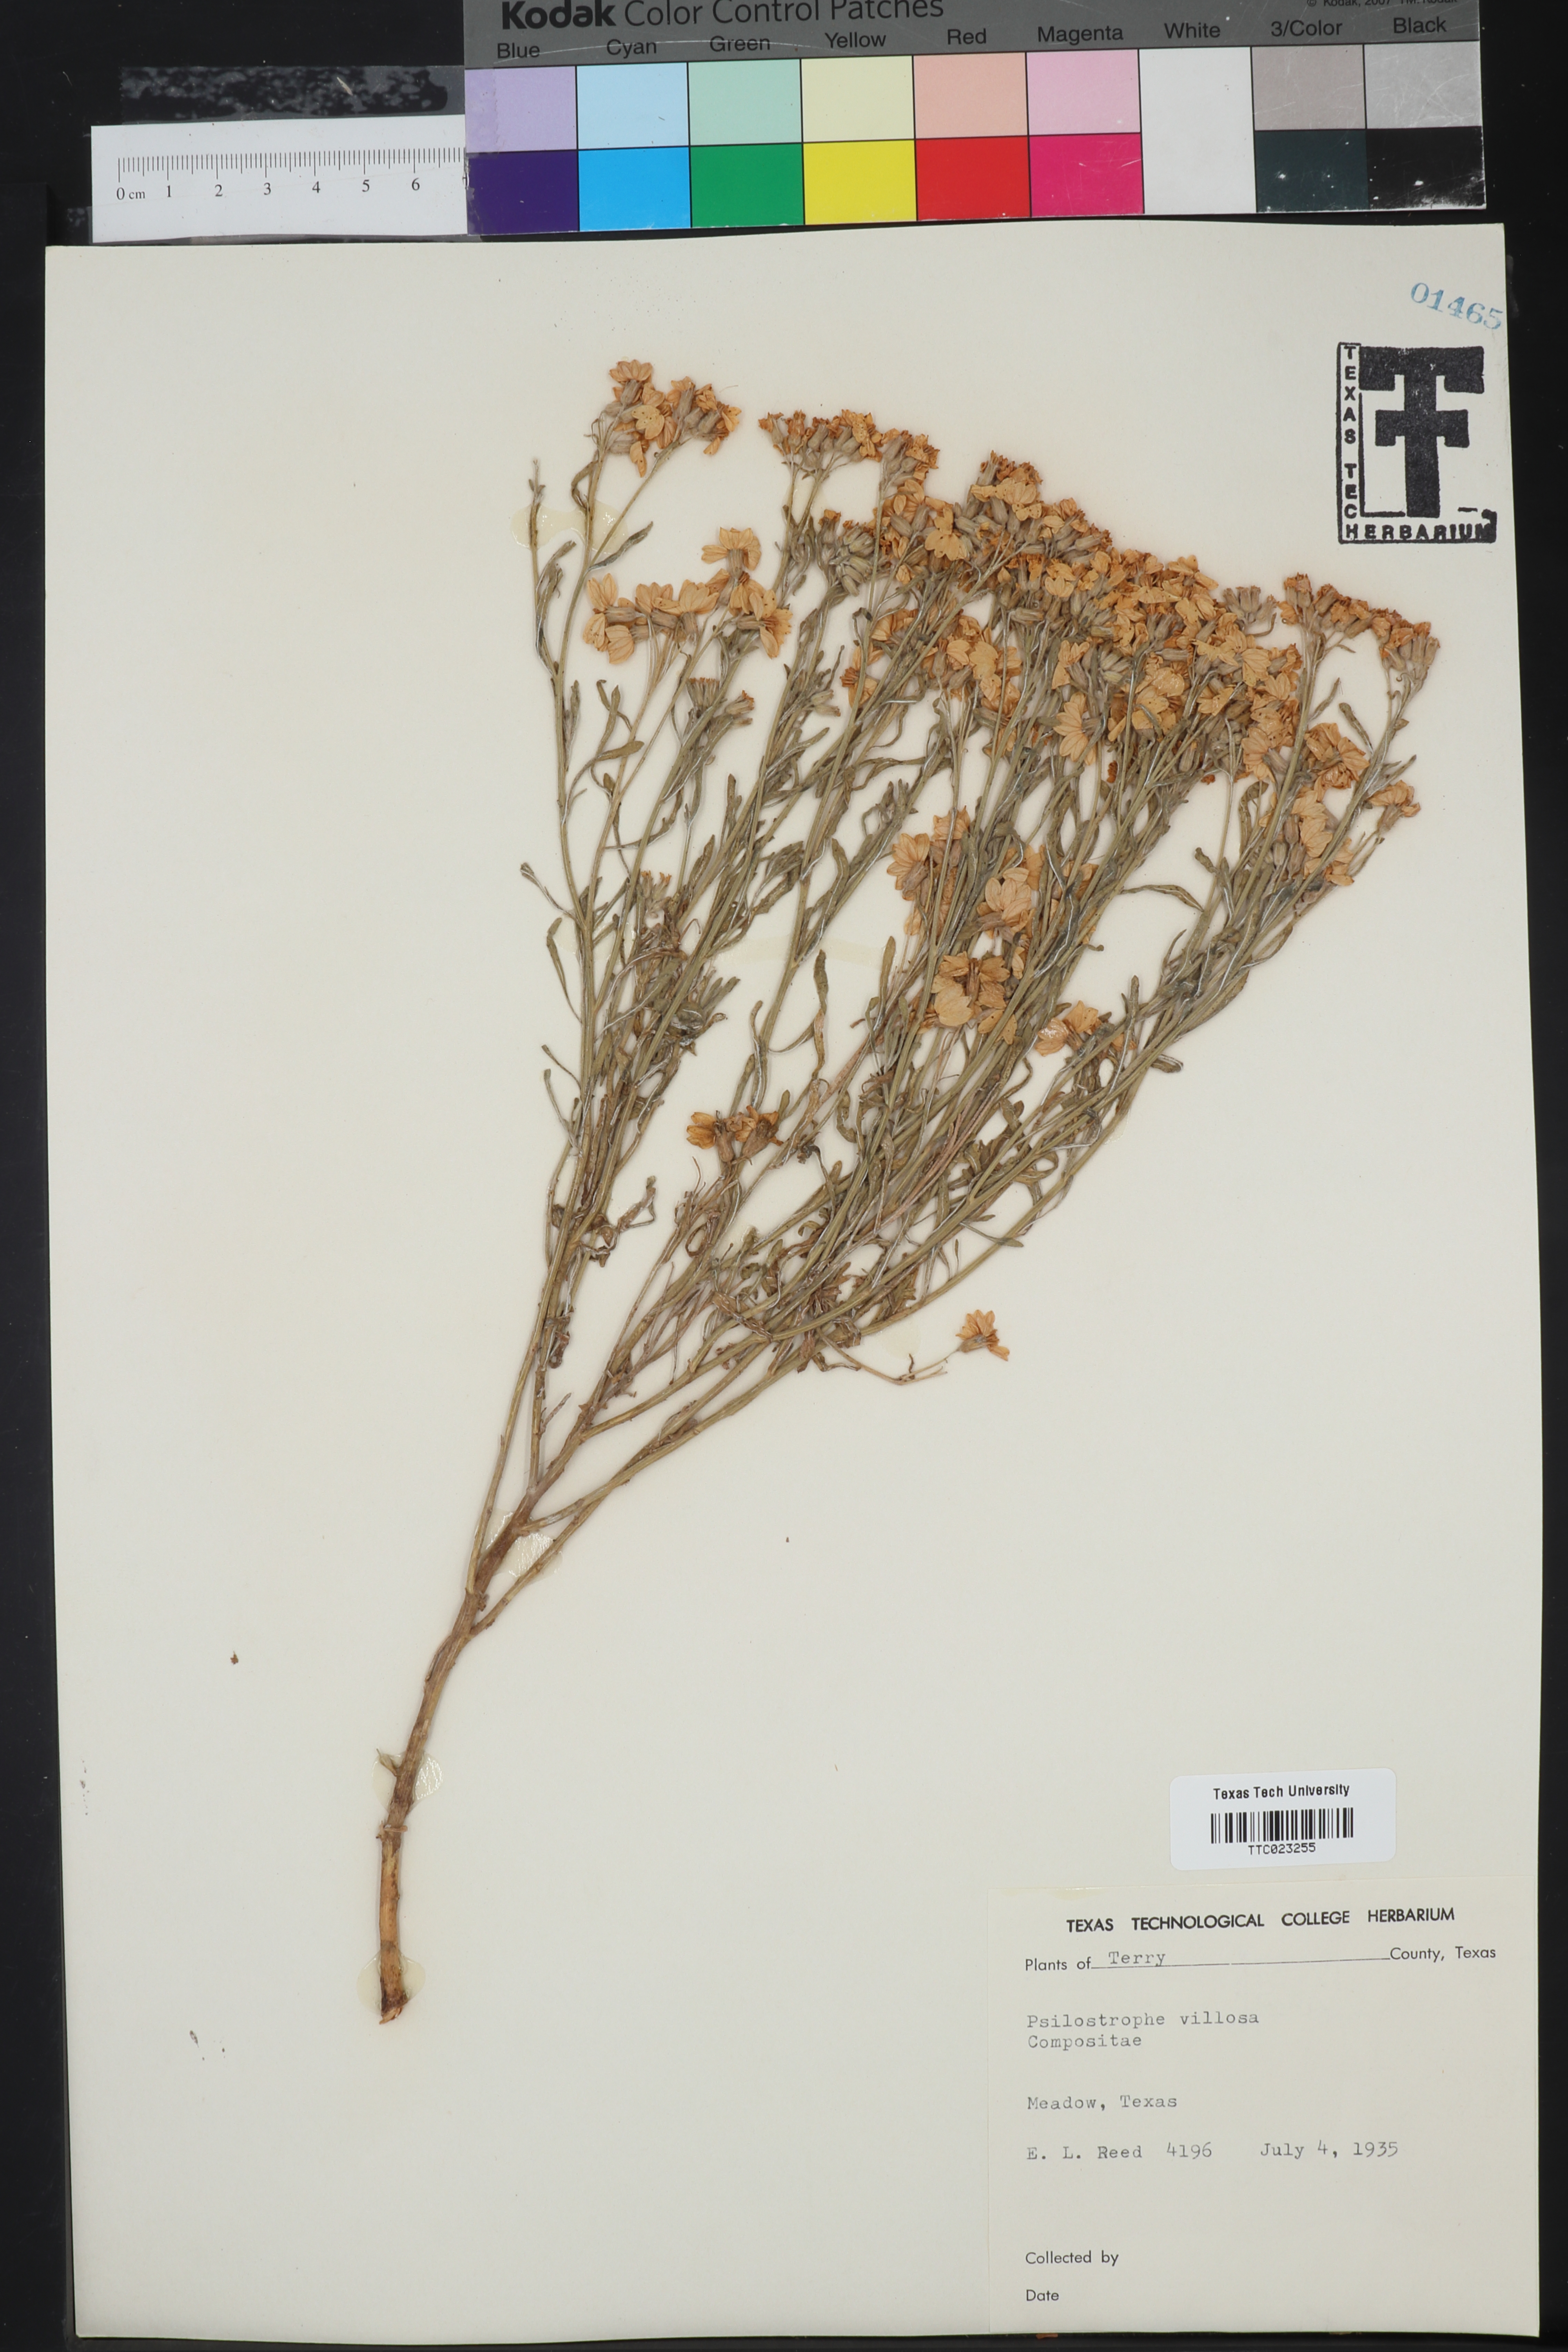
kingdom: Plantae
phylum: Tracheophyta
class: Magnoliopsida
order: Asterales
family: Asteraceae
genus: Psilostrophe
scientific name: Psilostrophe villosa
